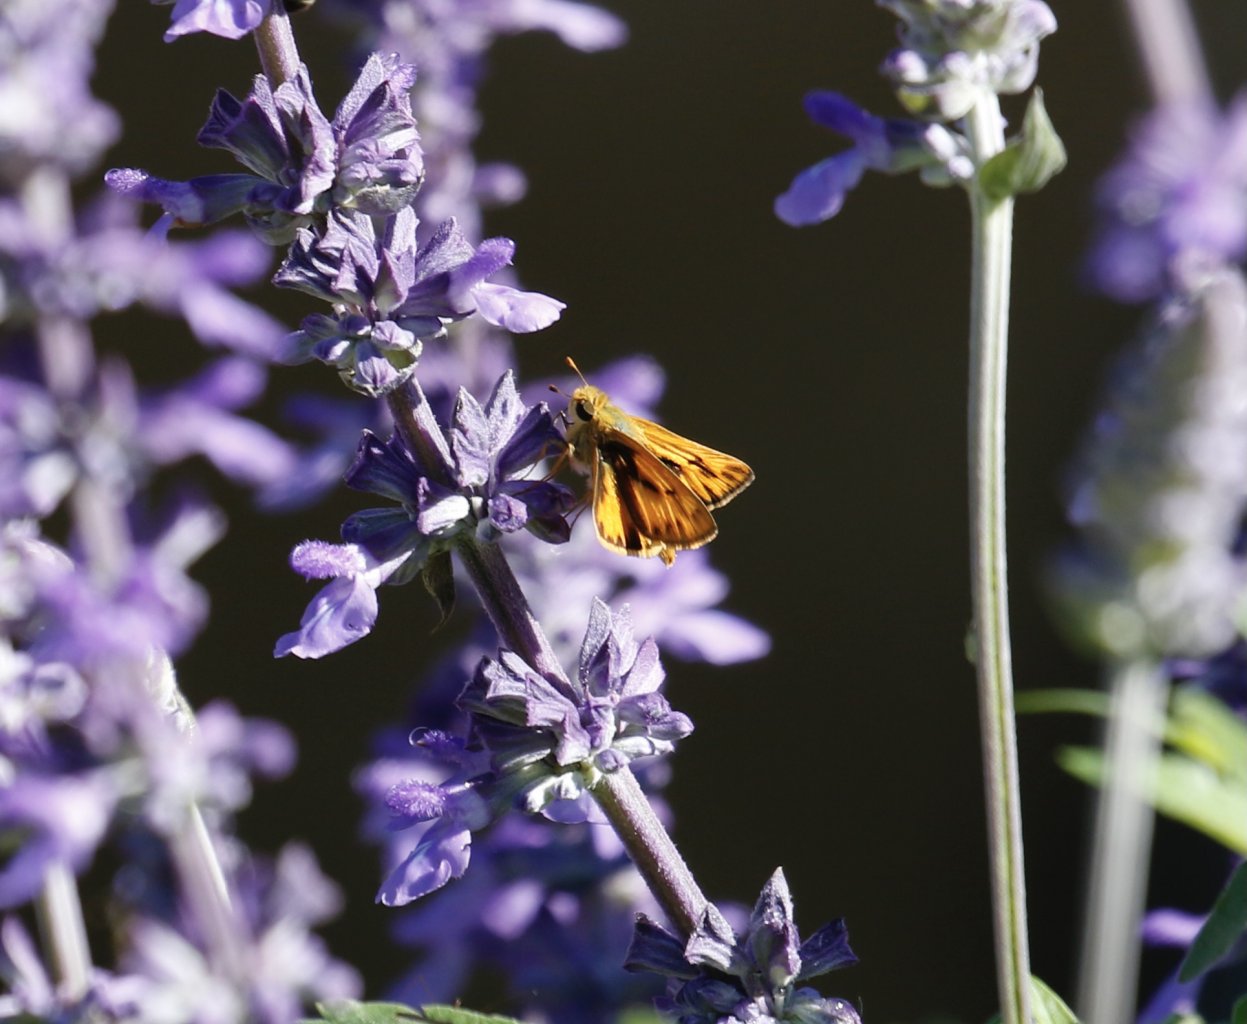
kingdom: Animalia
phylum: Arthropoda
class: Insecta
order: Lepidoptera
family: Hesperiidae
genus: Hylephila
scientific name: Hylephila phyleus
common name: Fiery Skipper
